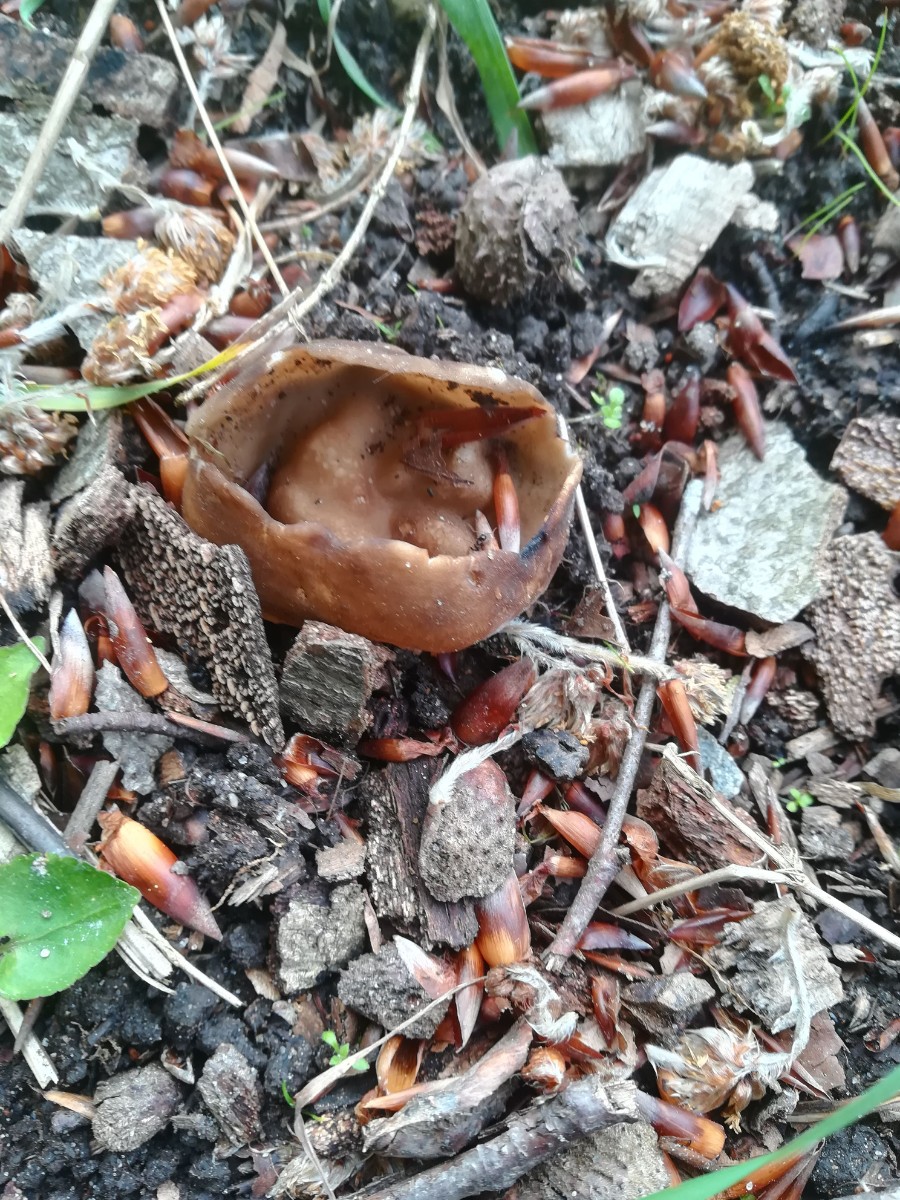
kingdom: Fungi
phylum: Ascomycota
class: Pezizomycetes
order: Pezizales
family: Helvellaceae
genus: Helvella
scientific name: Helvella acetabulum
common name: pokal-foldhat
